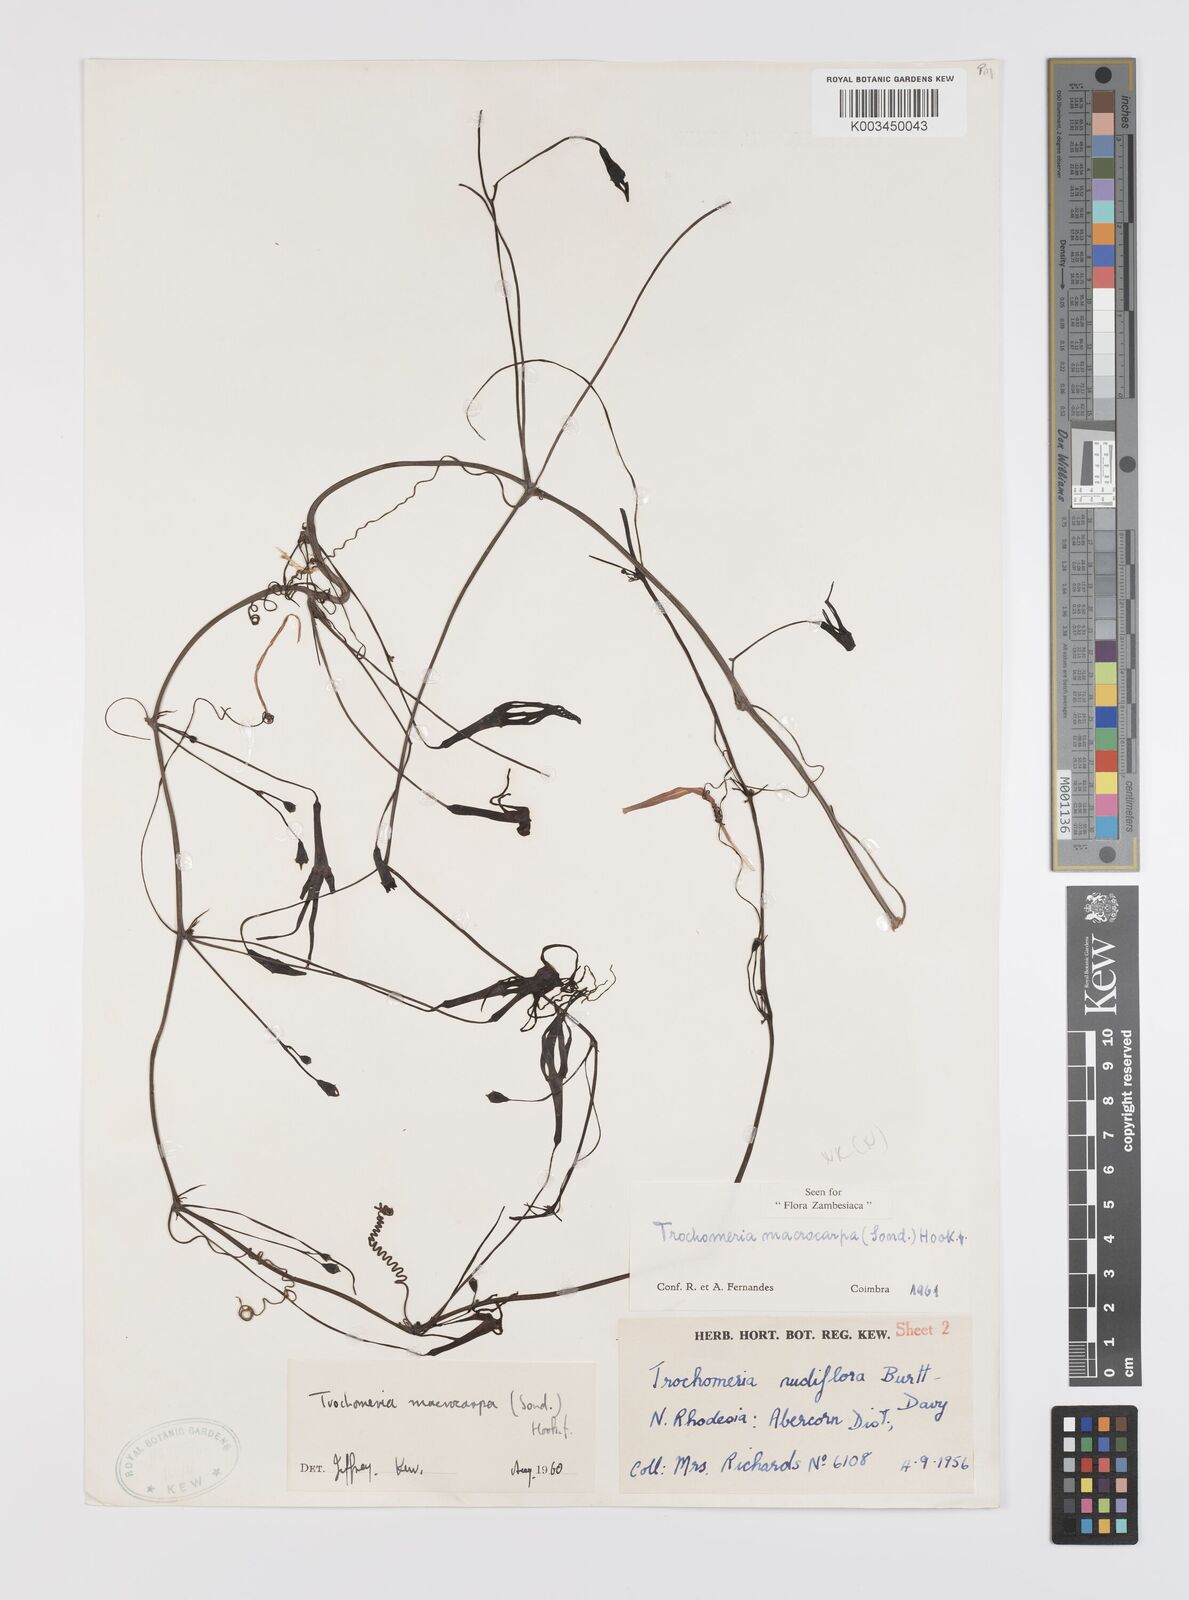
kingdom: Plantae
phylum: Tracheophyta
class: Magnoliopsida
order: Cucurbitales
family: Cucurbitaceae
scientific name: Cucurbitaceae
